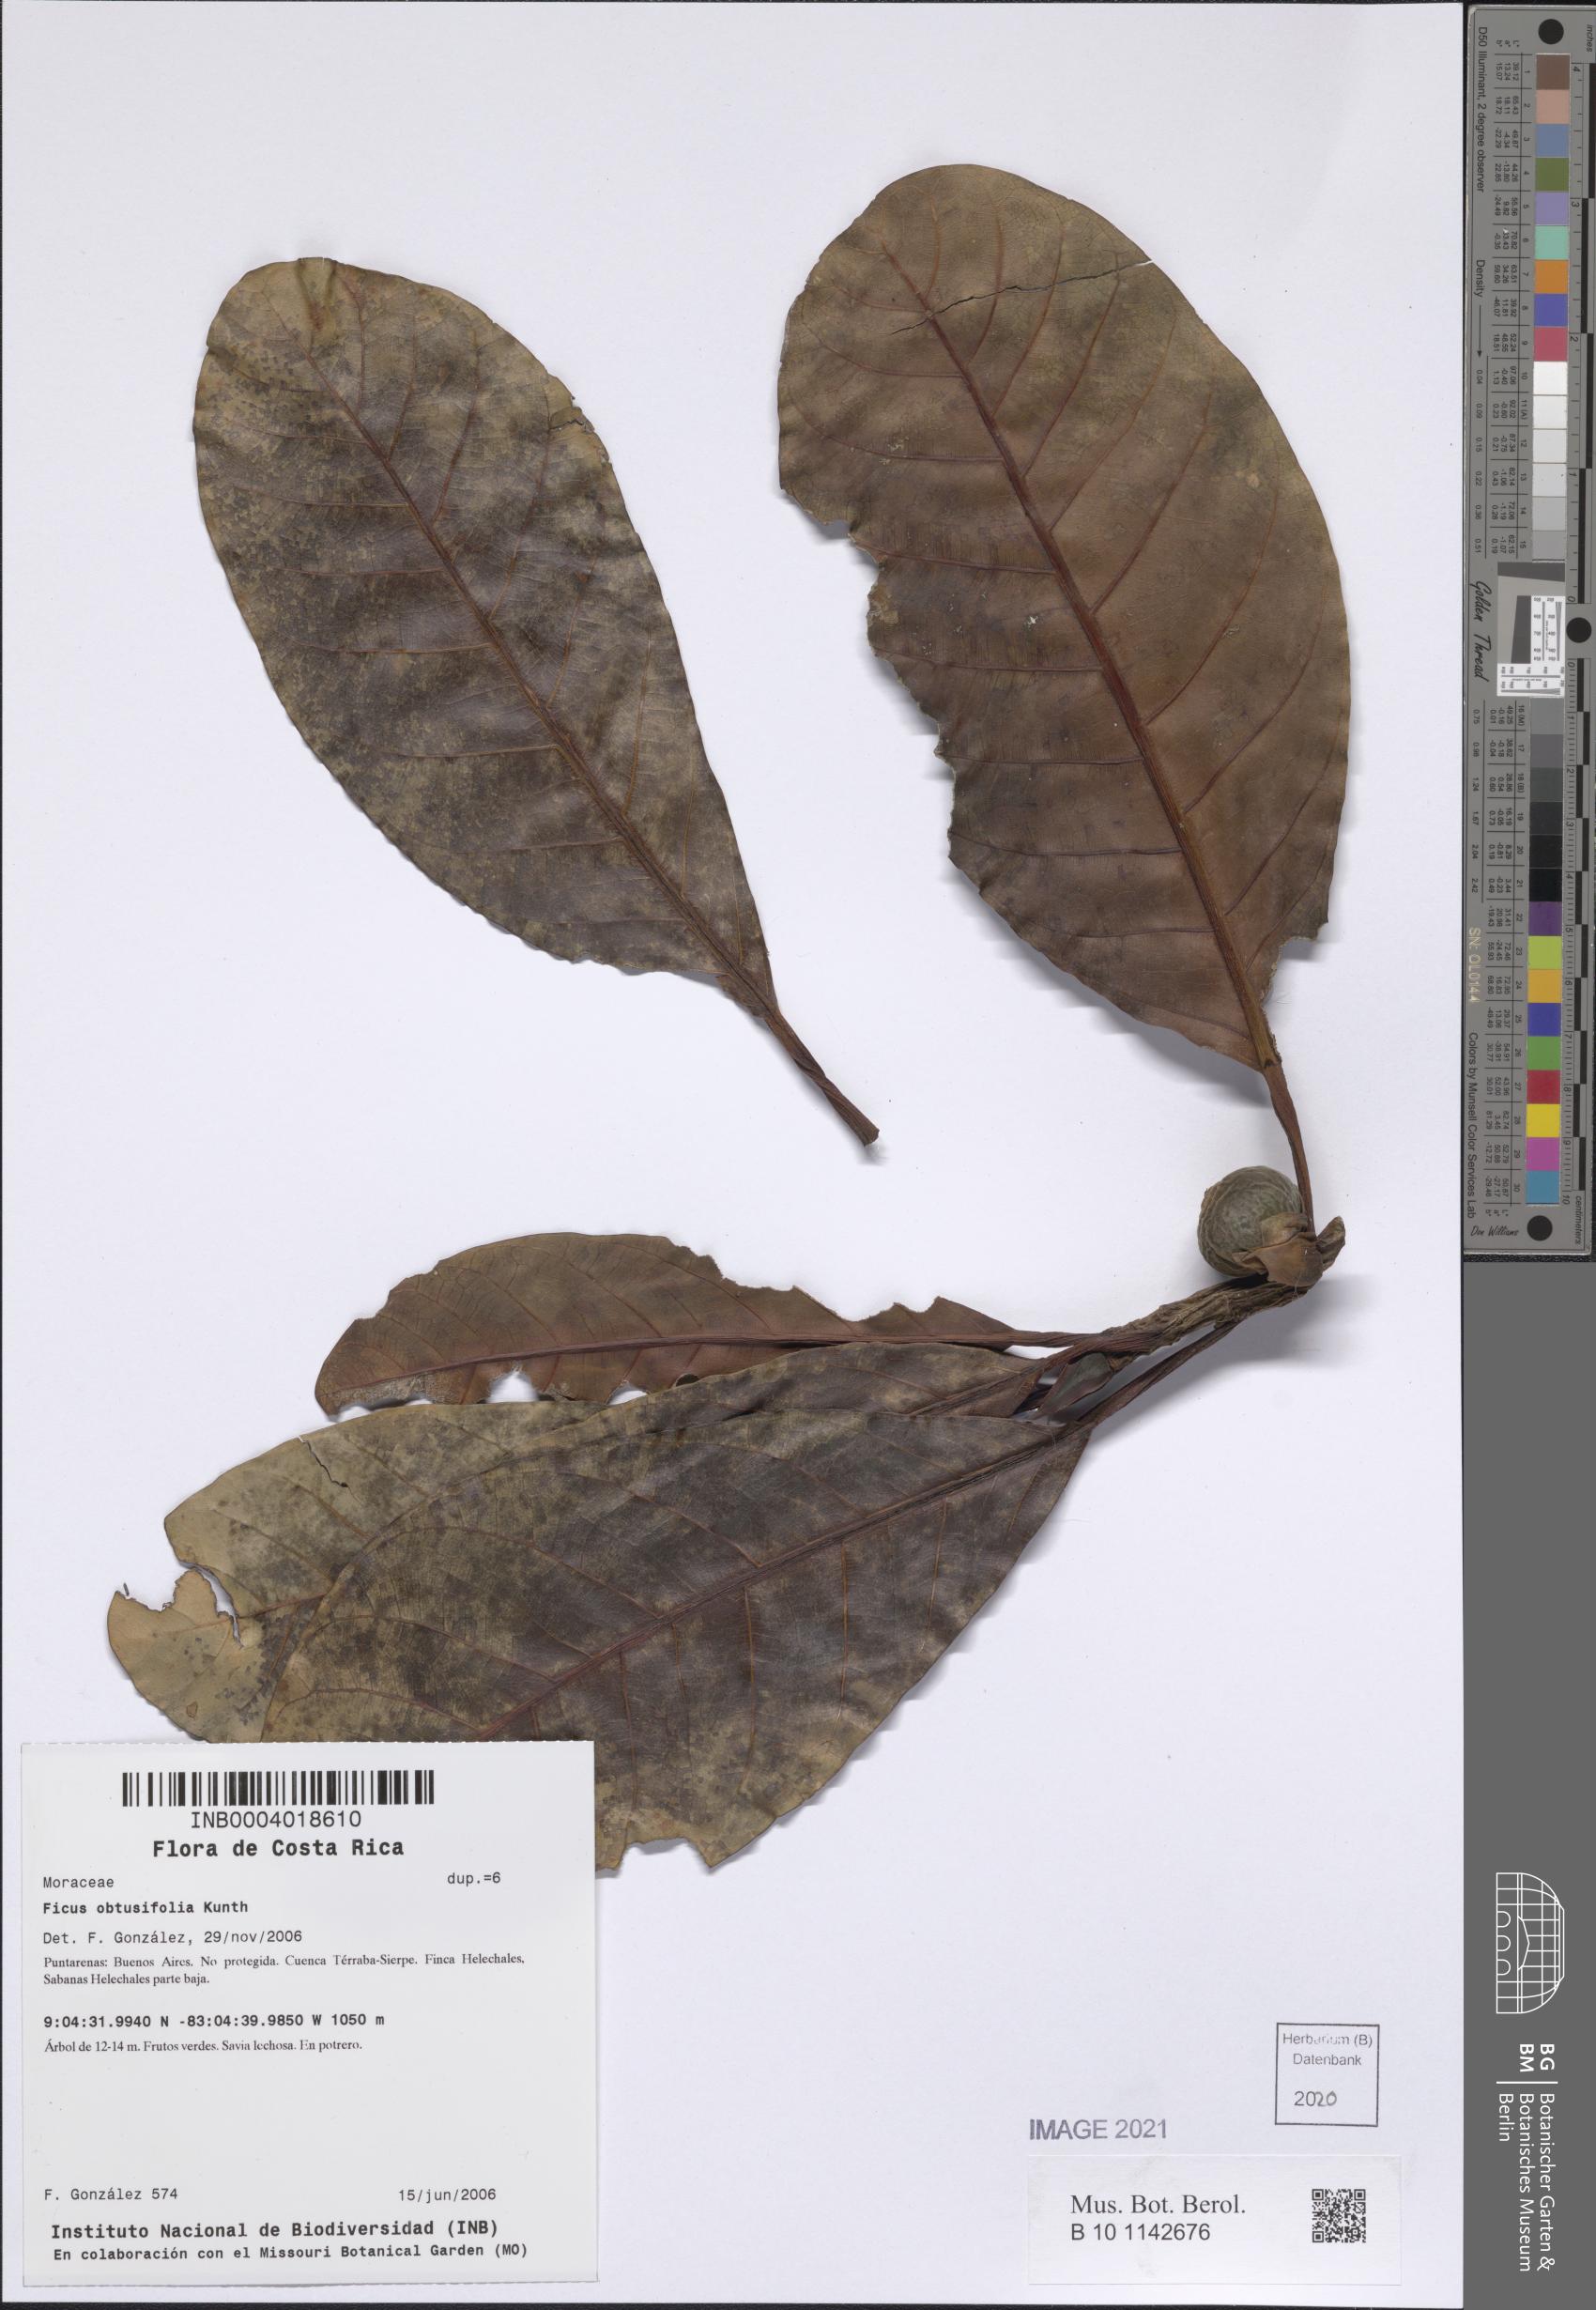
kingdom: Plantae
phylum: Tracheophyta
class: Magnoliopsida
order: Rosales
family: Moraceae
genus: Ficus
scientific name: Ficus obtusifolia
